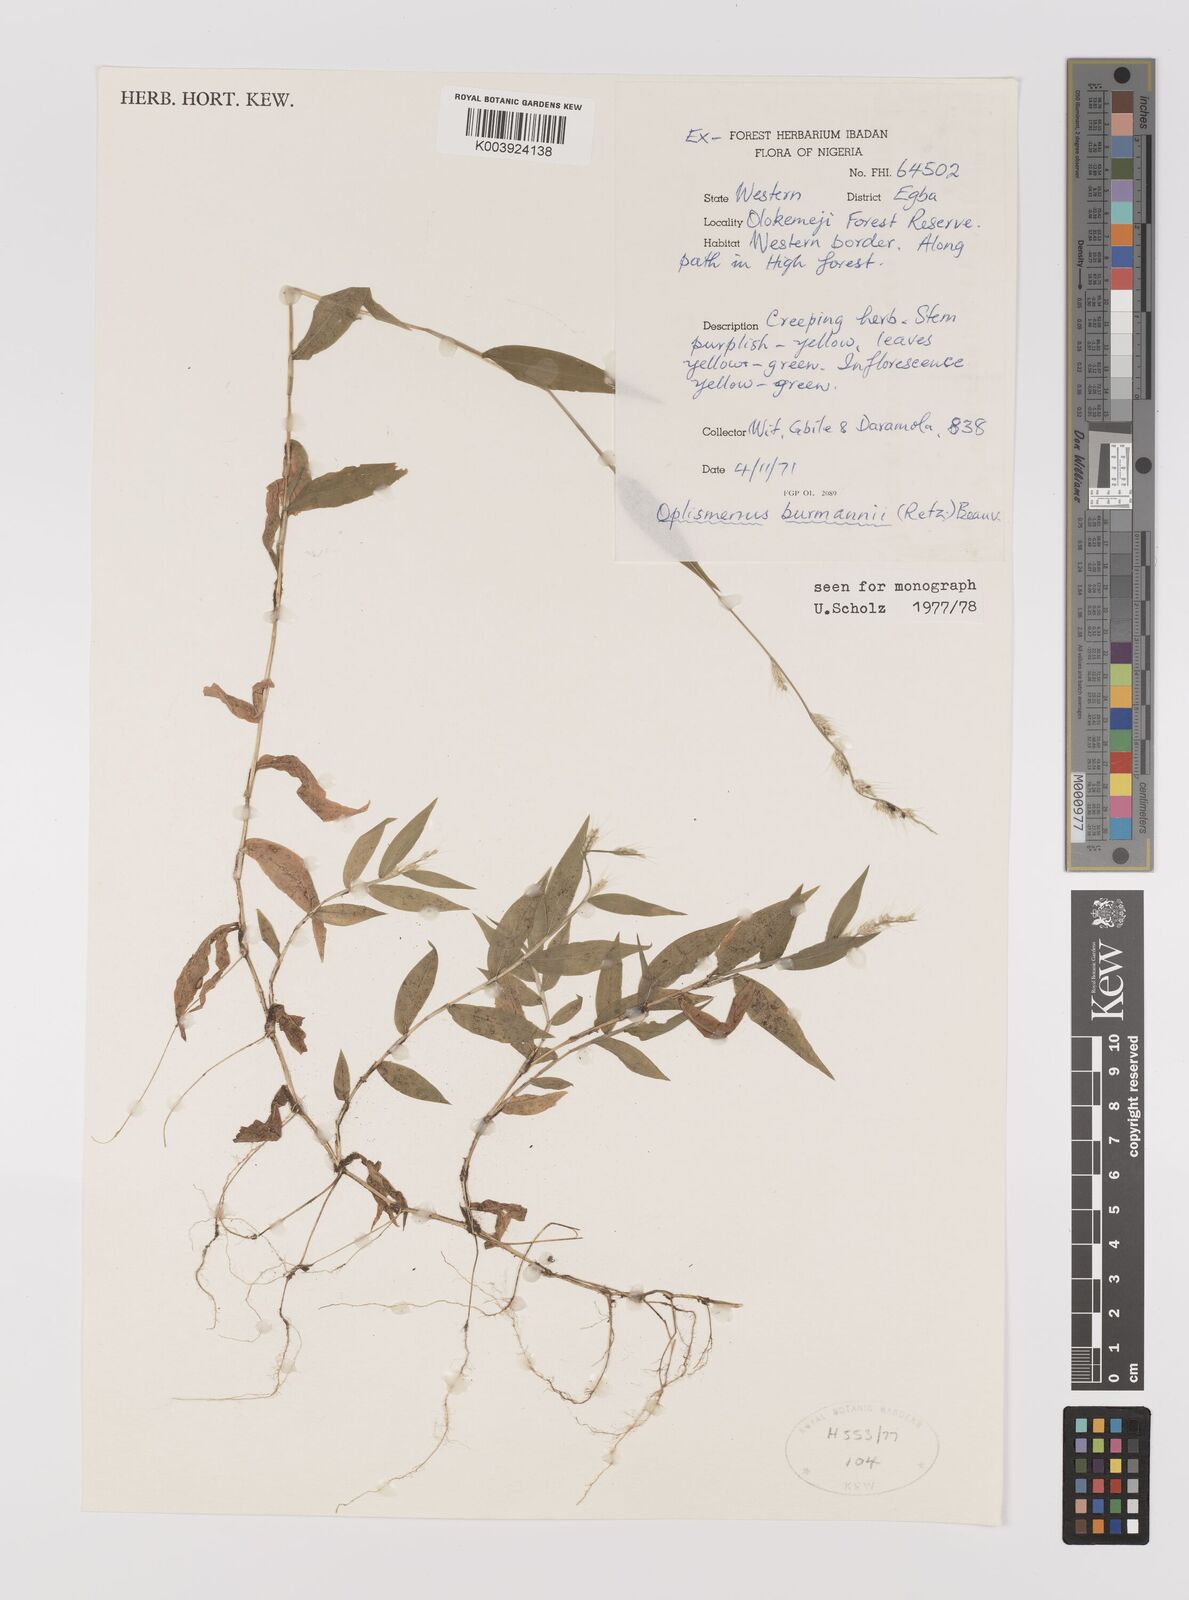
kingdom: Plantae
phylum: Tracheophyta
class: Liliopsida
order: Poales
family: Poaceae
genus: Oplismenus
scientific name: Oplismenus burmanni
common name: Burmann's basketgrass
